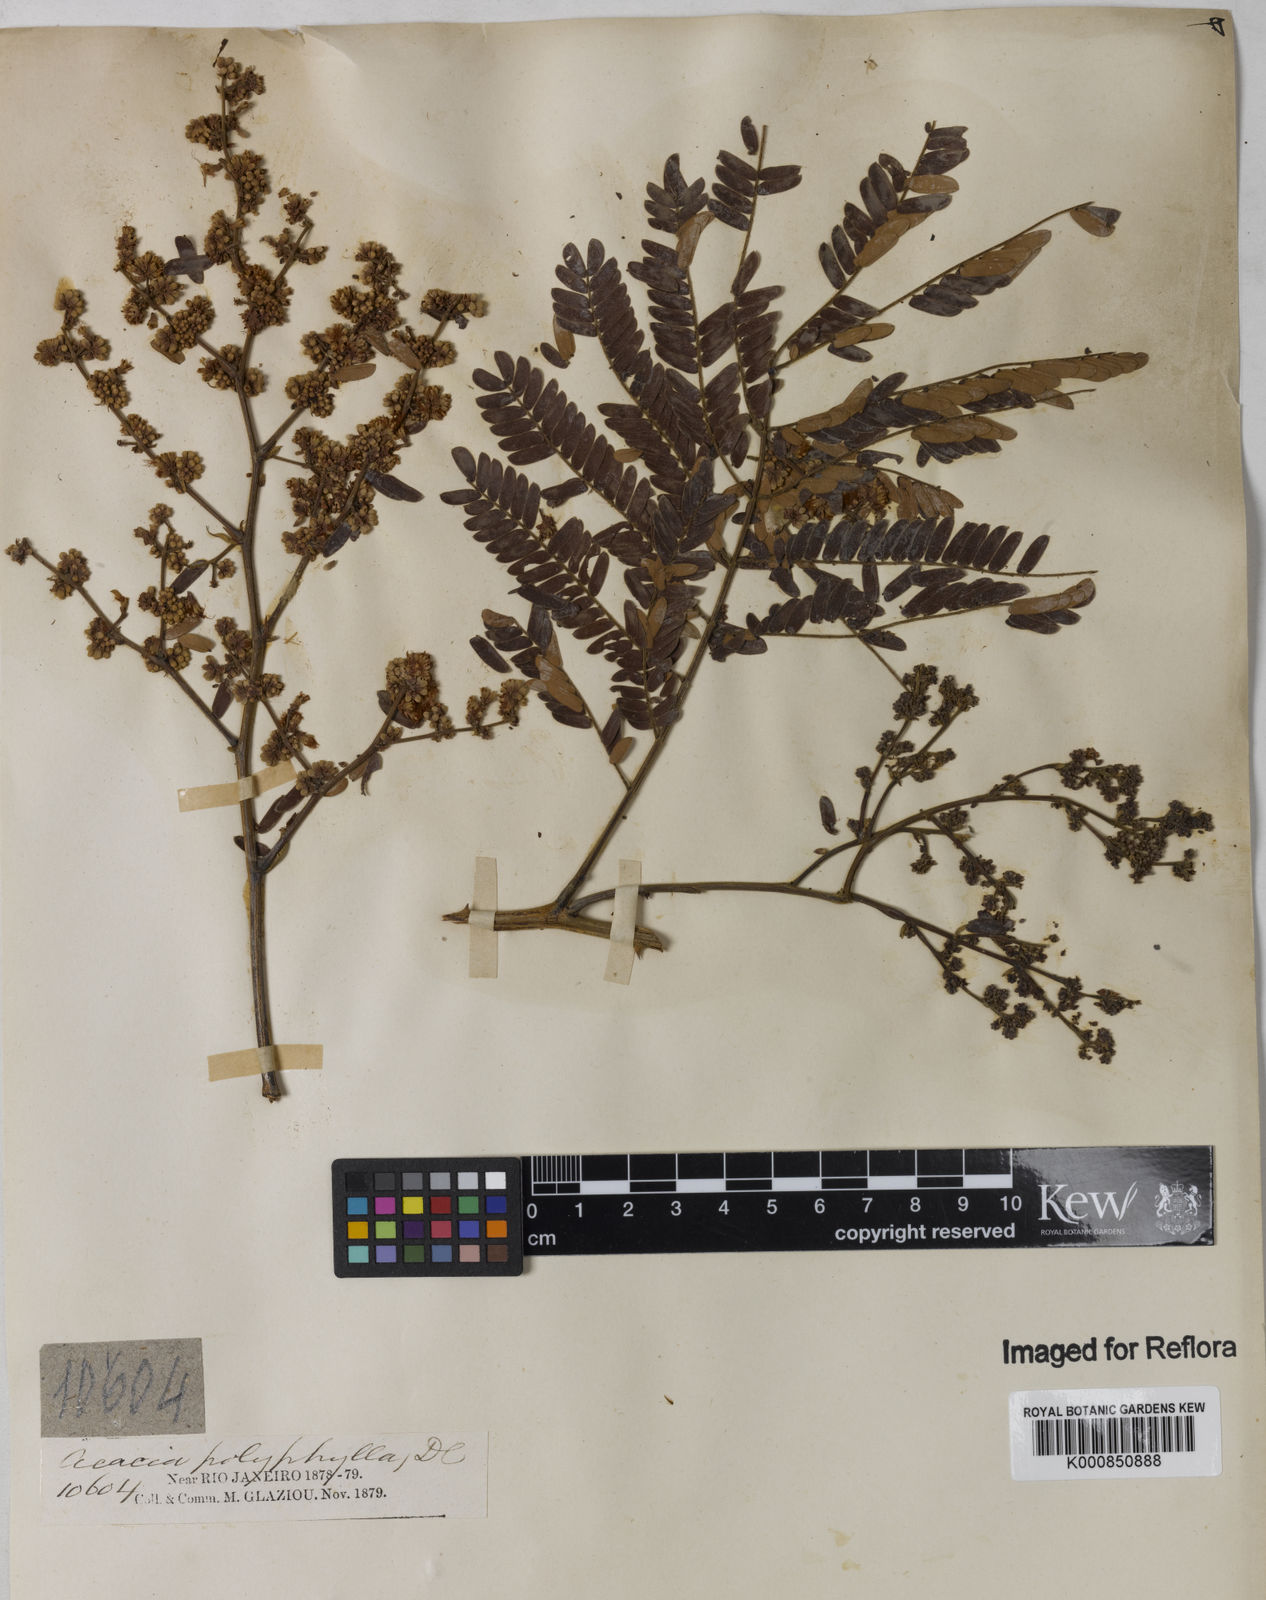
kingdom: Plantae
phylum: Tracheophyta
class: Magnoliopsida
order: Fabales
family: Fabaceae
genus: Senegalia
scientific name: Senegalia polyphylla
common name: White-tamarind
